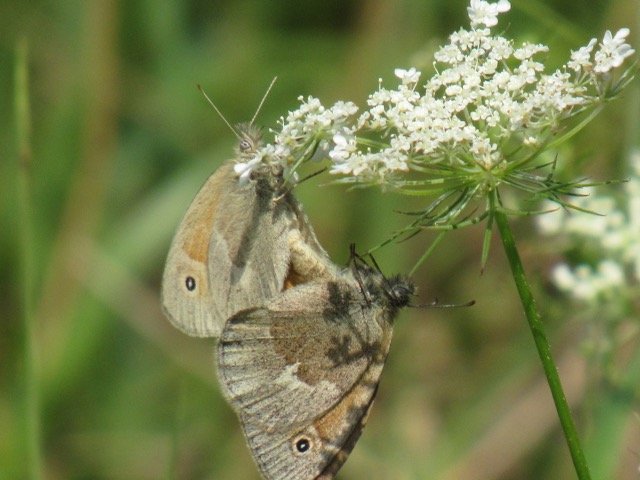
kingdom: Animalia
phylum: Arthropoda
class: Insecta
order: Lepidoptera
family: Nymphalidae
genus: Coenonympha
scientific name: Coenonympha tullia
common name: Large Heath
